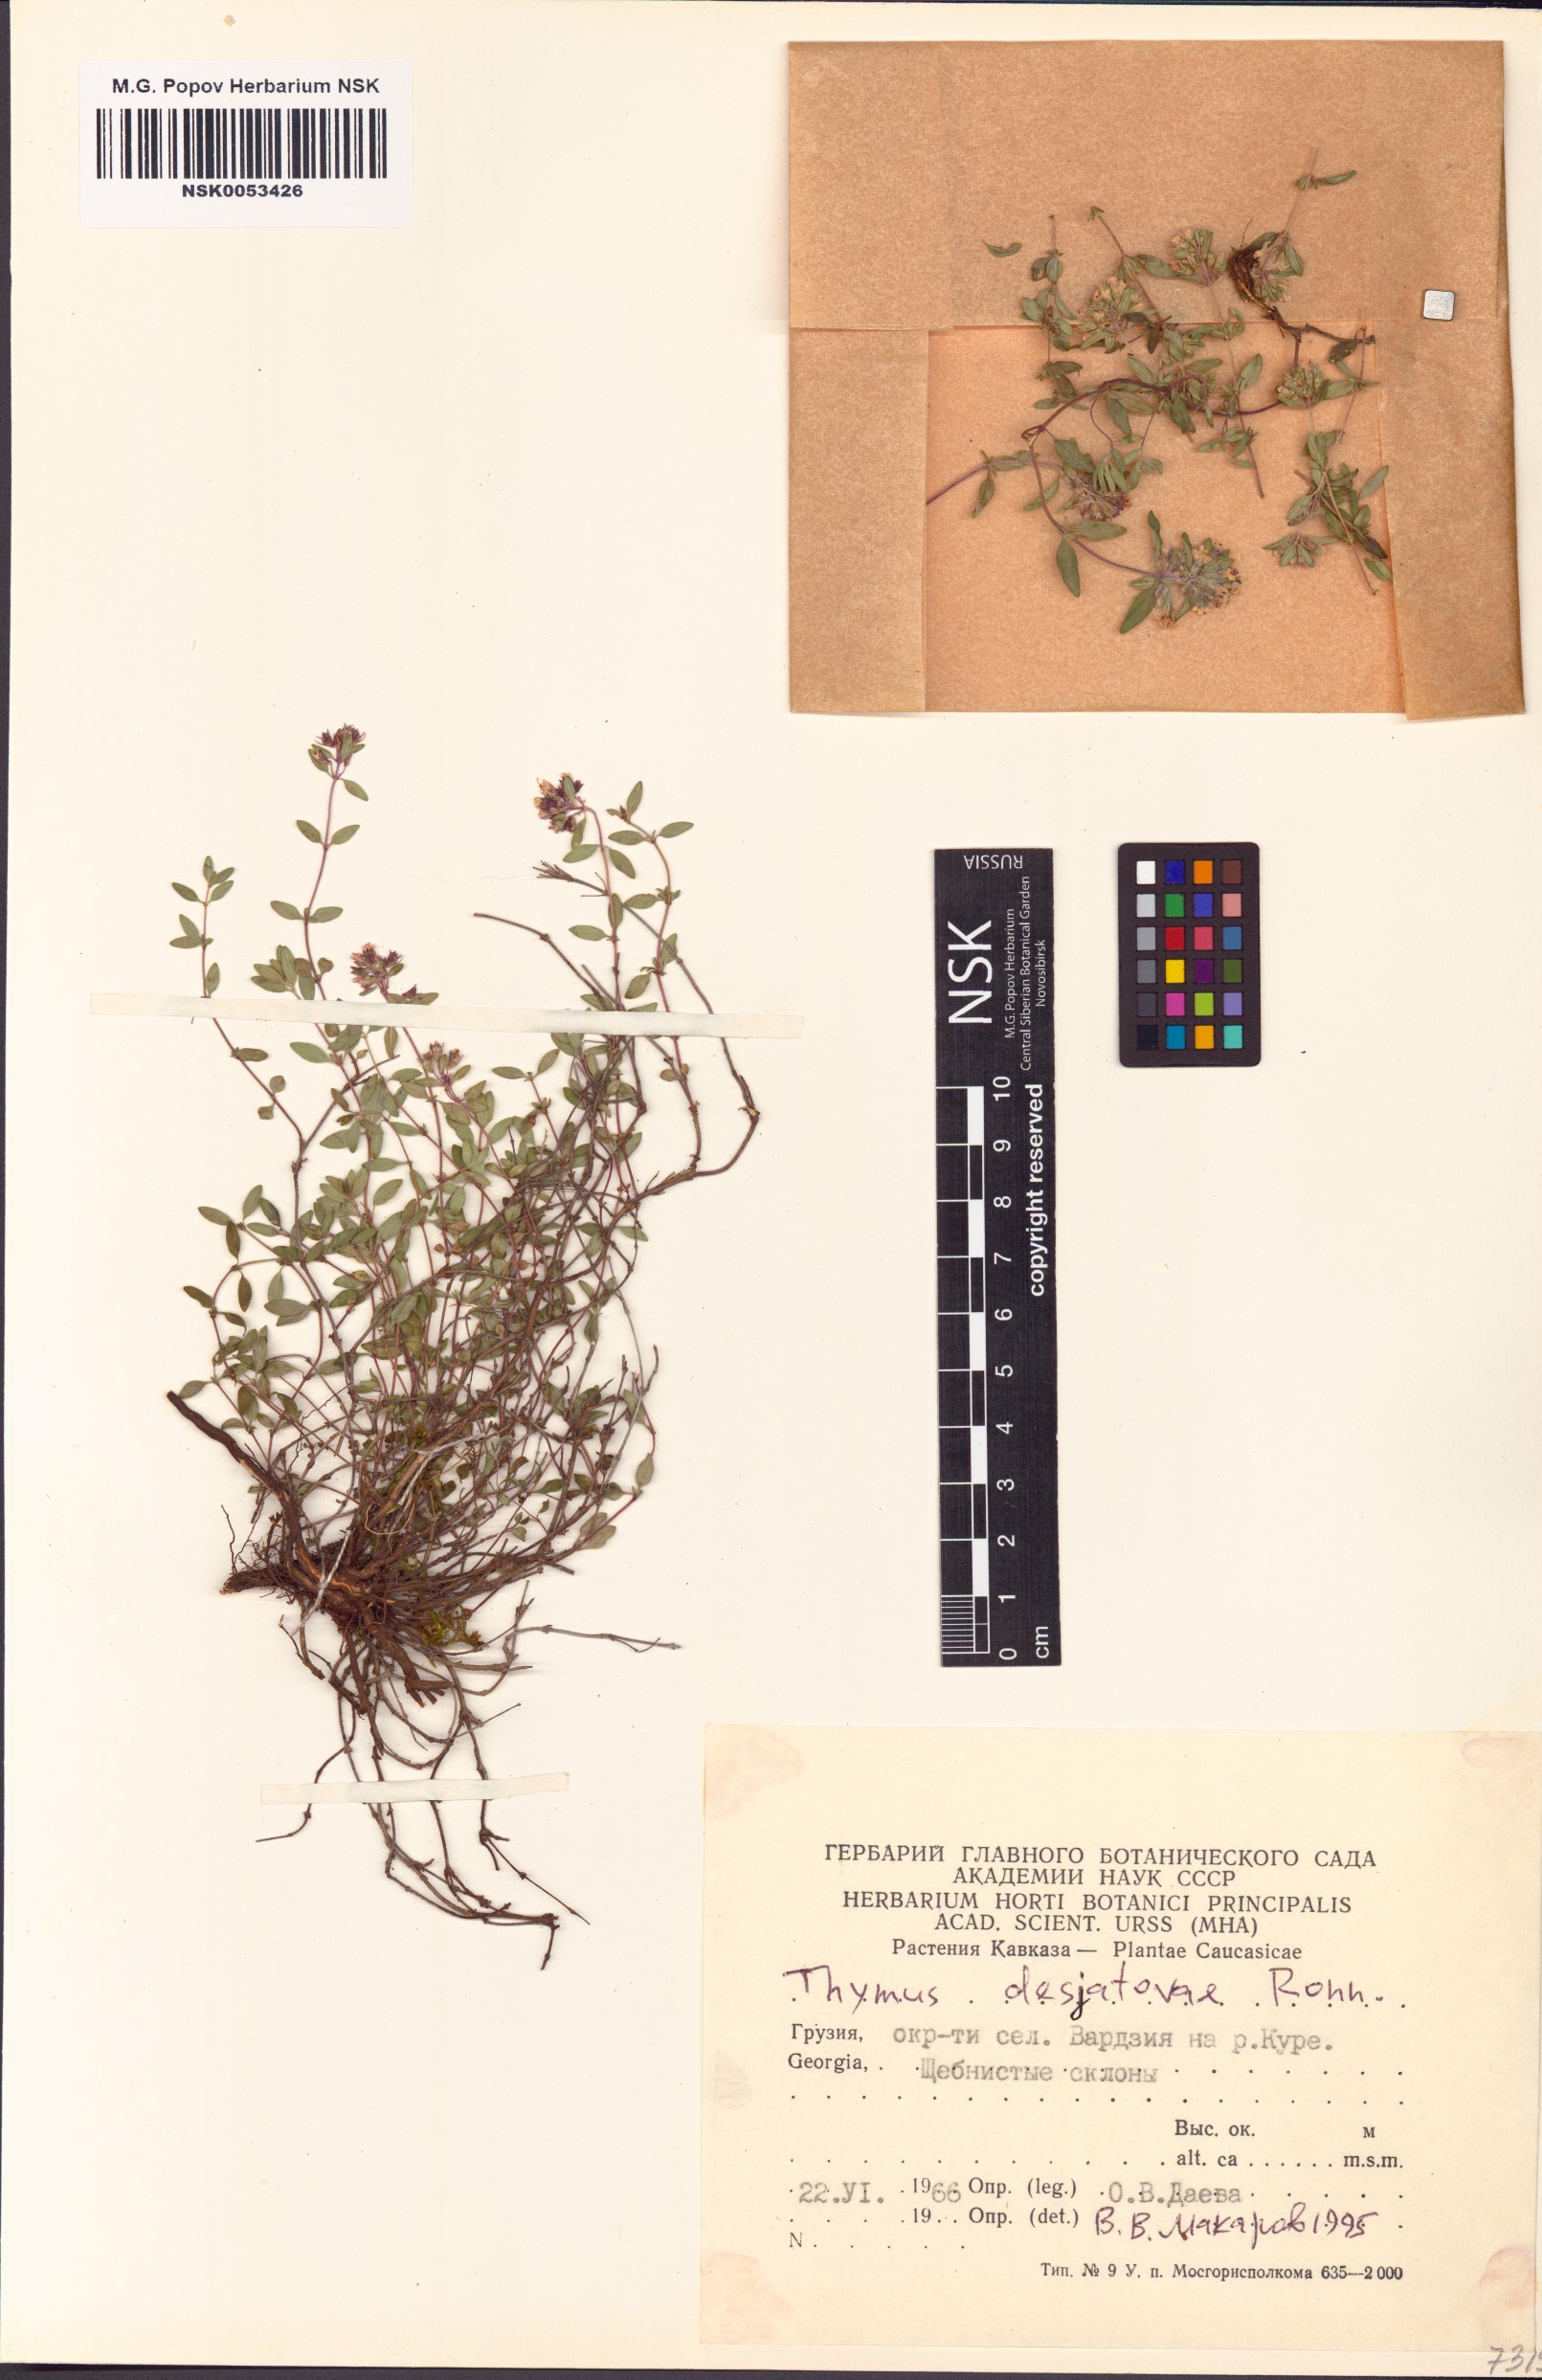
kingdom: Plantae
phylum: Tracheophyta
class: Magnoliopsida
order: Lamiales
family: Lamiaceae
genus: Thymus
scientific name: Thymus desjatovae
